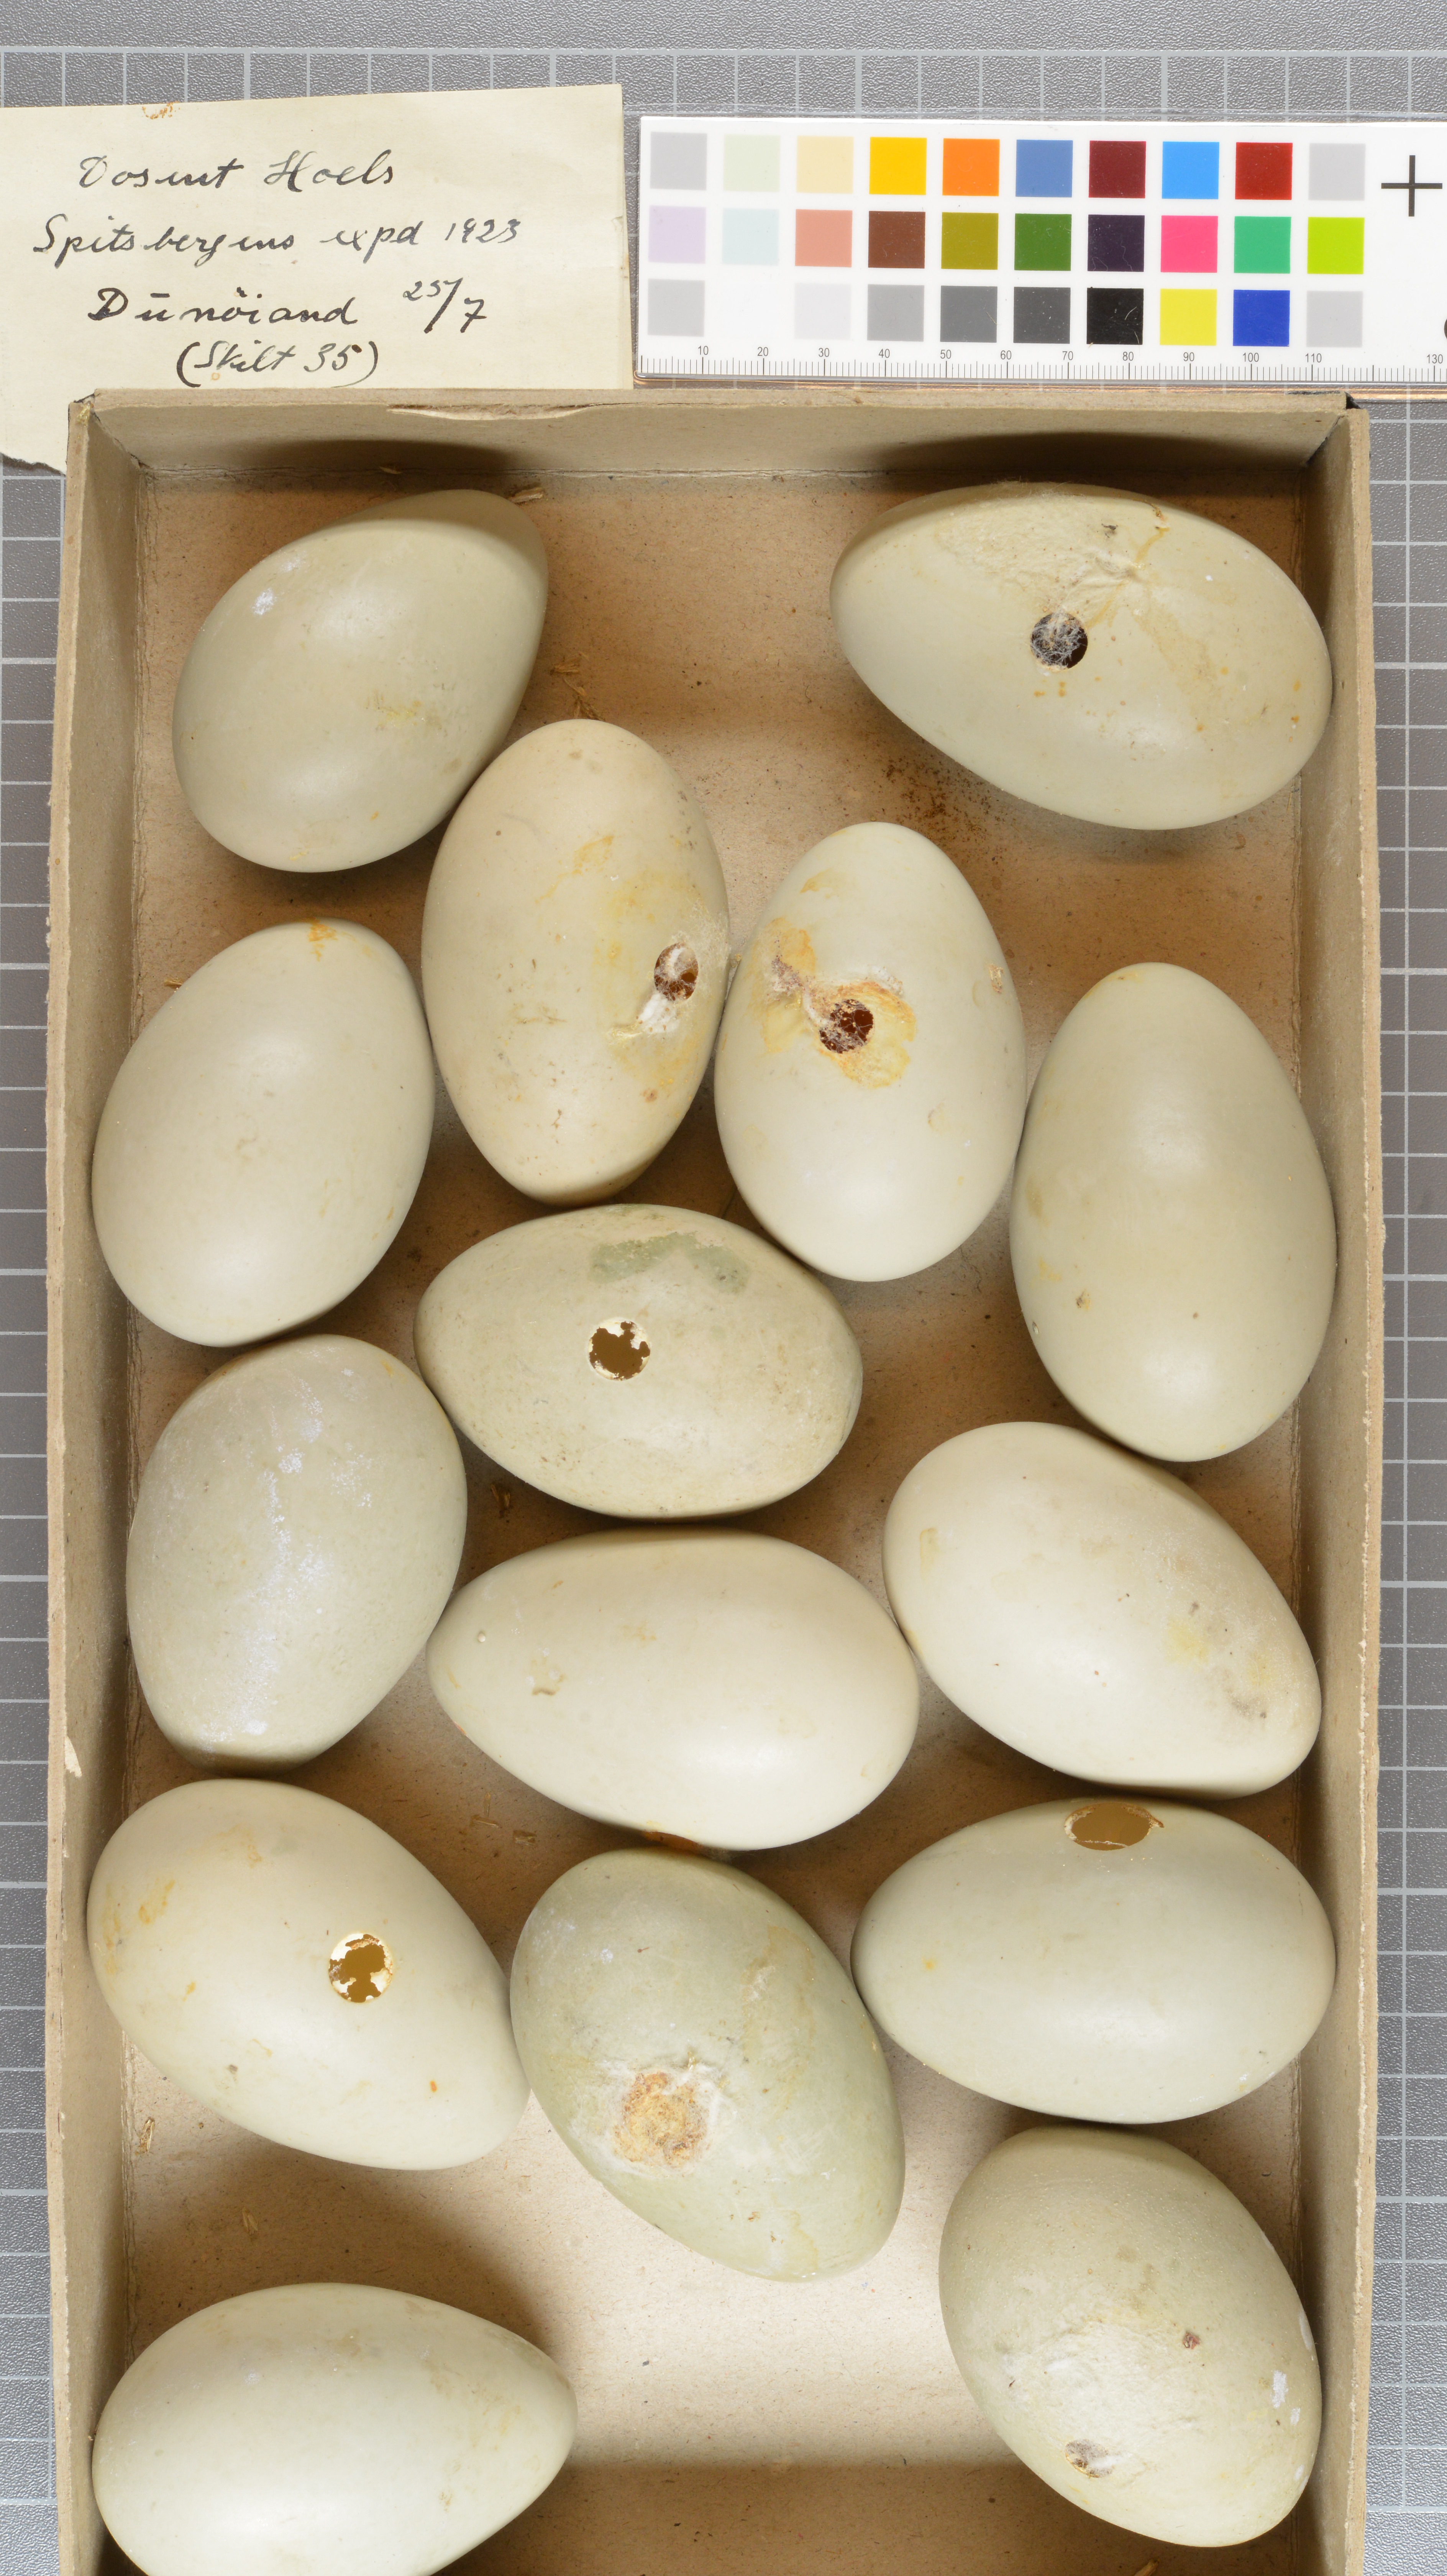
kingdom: Animalia
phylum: Chordata
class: Aves
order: Anseriformes
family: Anatidae
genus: Somateria
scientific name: Somateria
